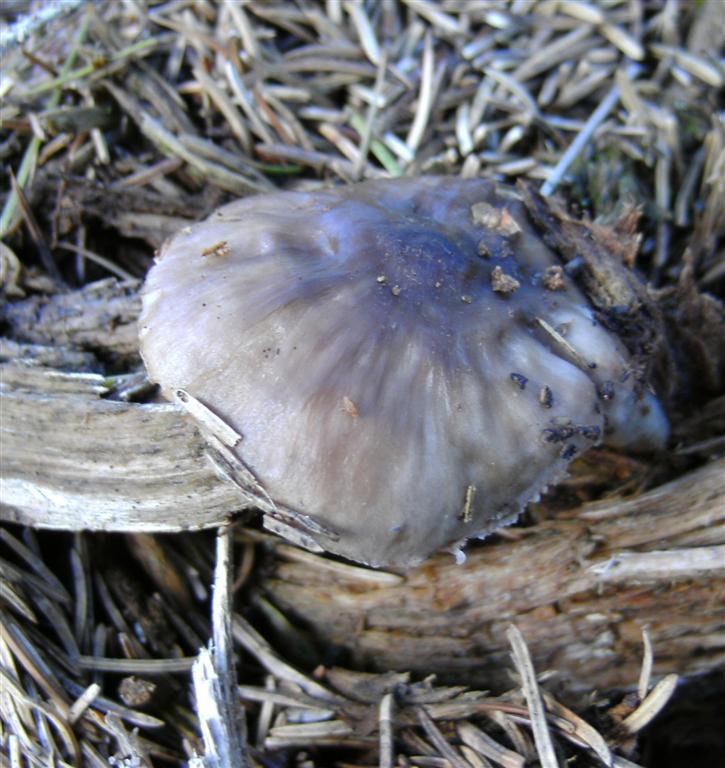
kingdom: Fungi
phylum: Basidiomycota
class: Agaricomycetes
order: Agaricales
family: Pluteaceae
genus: Pluteus
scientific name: Pluteus pouzarianus
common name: plantage-skærmhat
